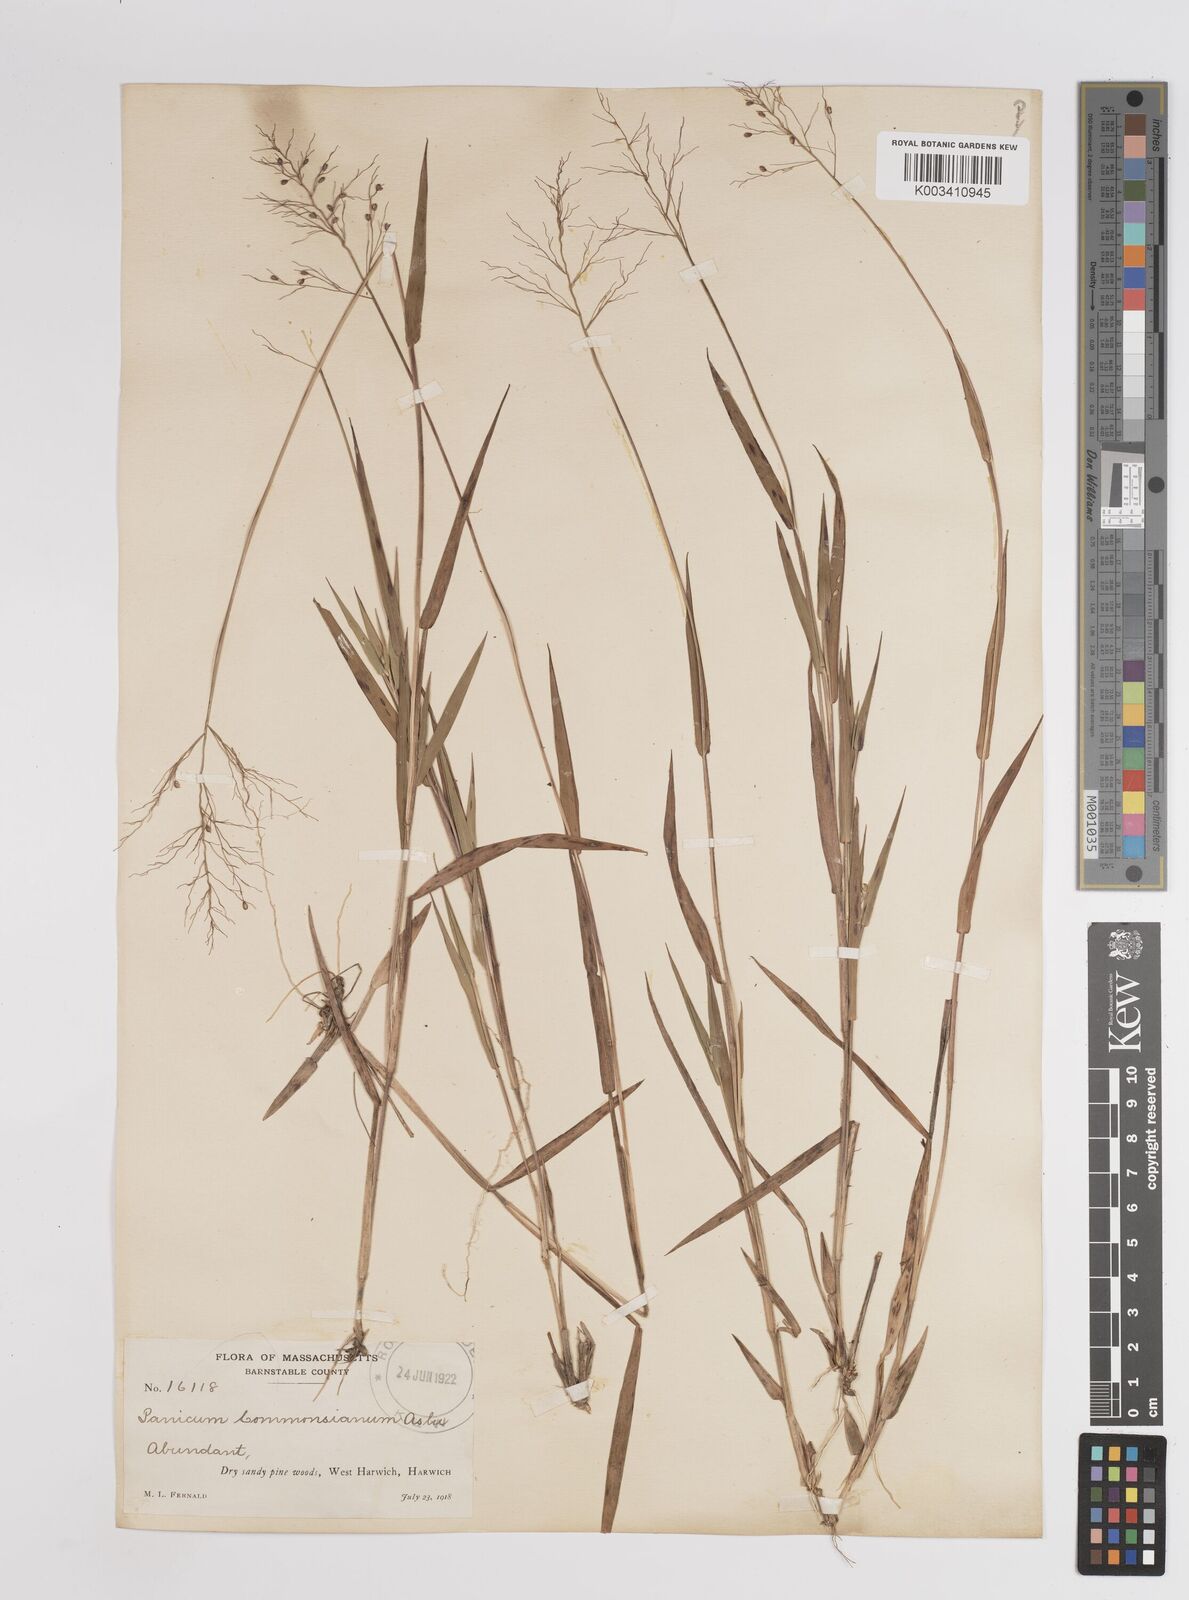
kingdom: Plantae
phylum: Tracheophyta
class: Liliopsida
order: Poales
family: Poaceae
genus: Dichanthelium
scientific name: Dichanthelium commonsianum
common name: Commons' panicgrass
